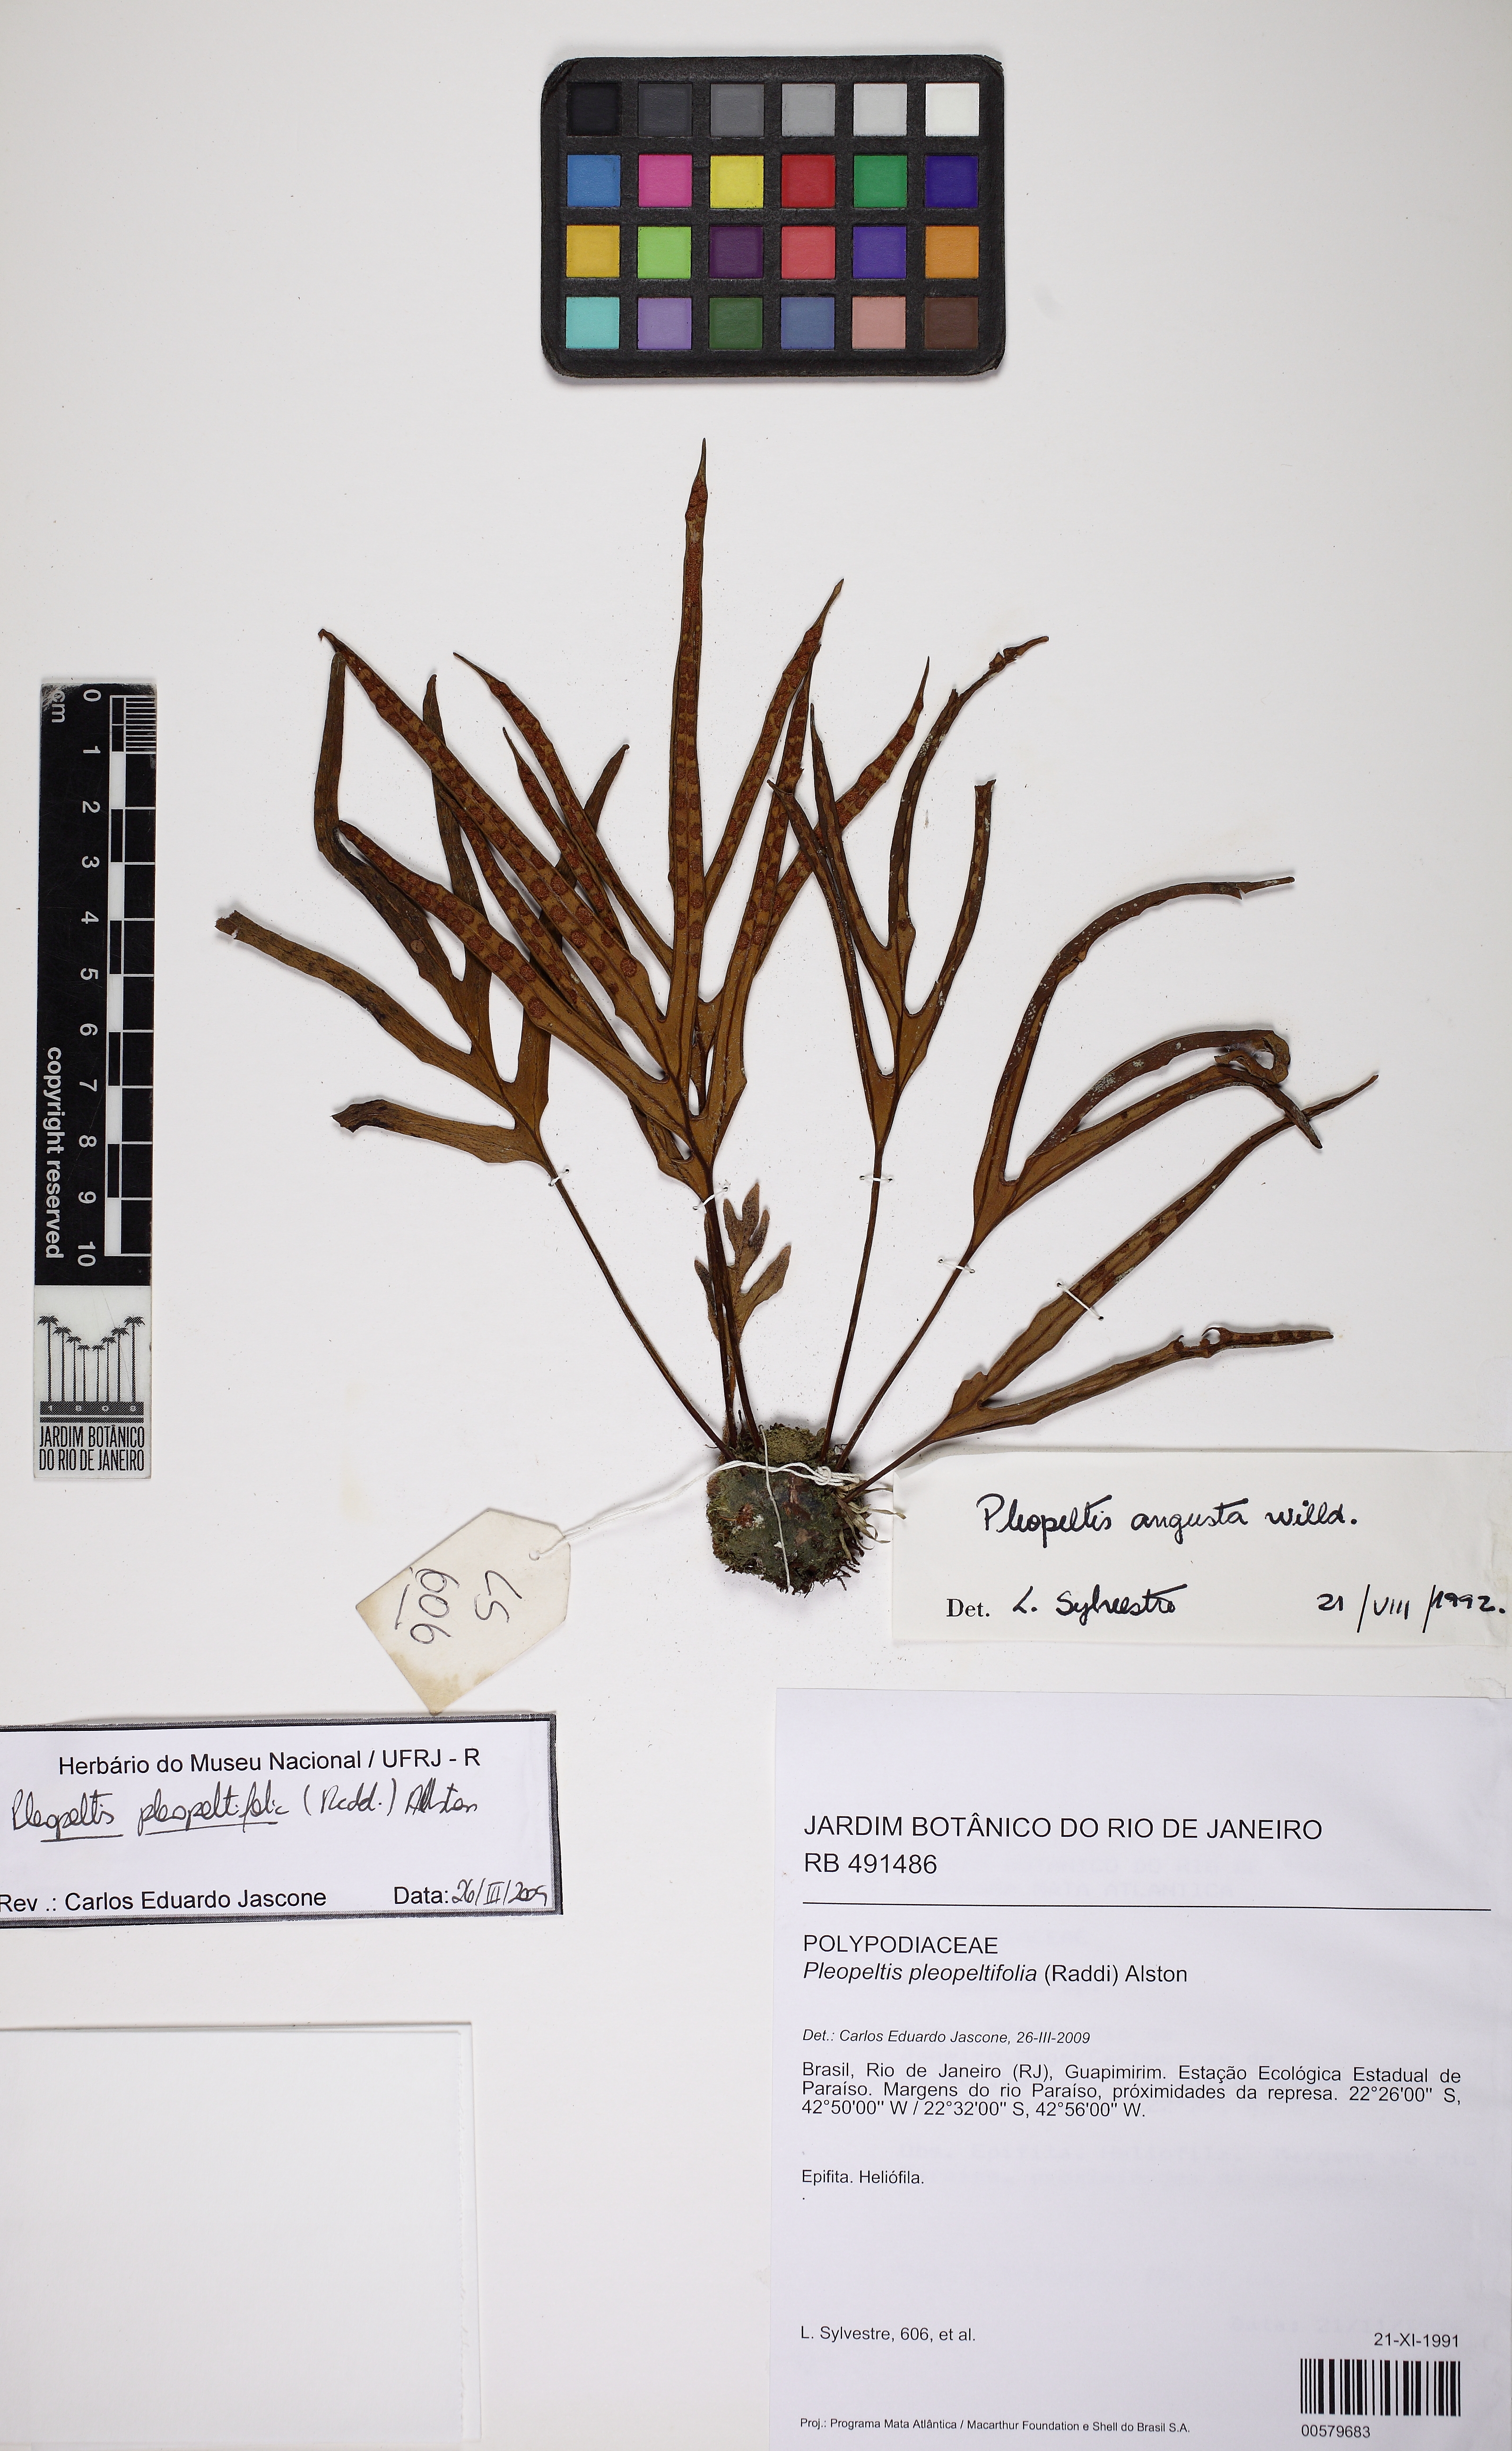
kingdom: Plantae
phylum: Tracheophyta
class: Polypodiopsida
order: Polypodiales
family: Polypodiaceae
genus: Pleopeltis
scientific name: Pleopeltis pleopeltifolia
